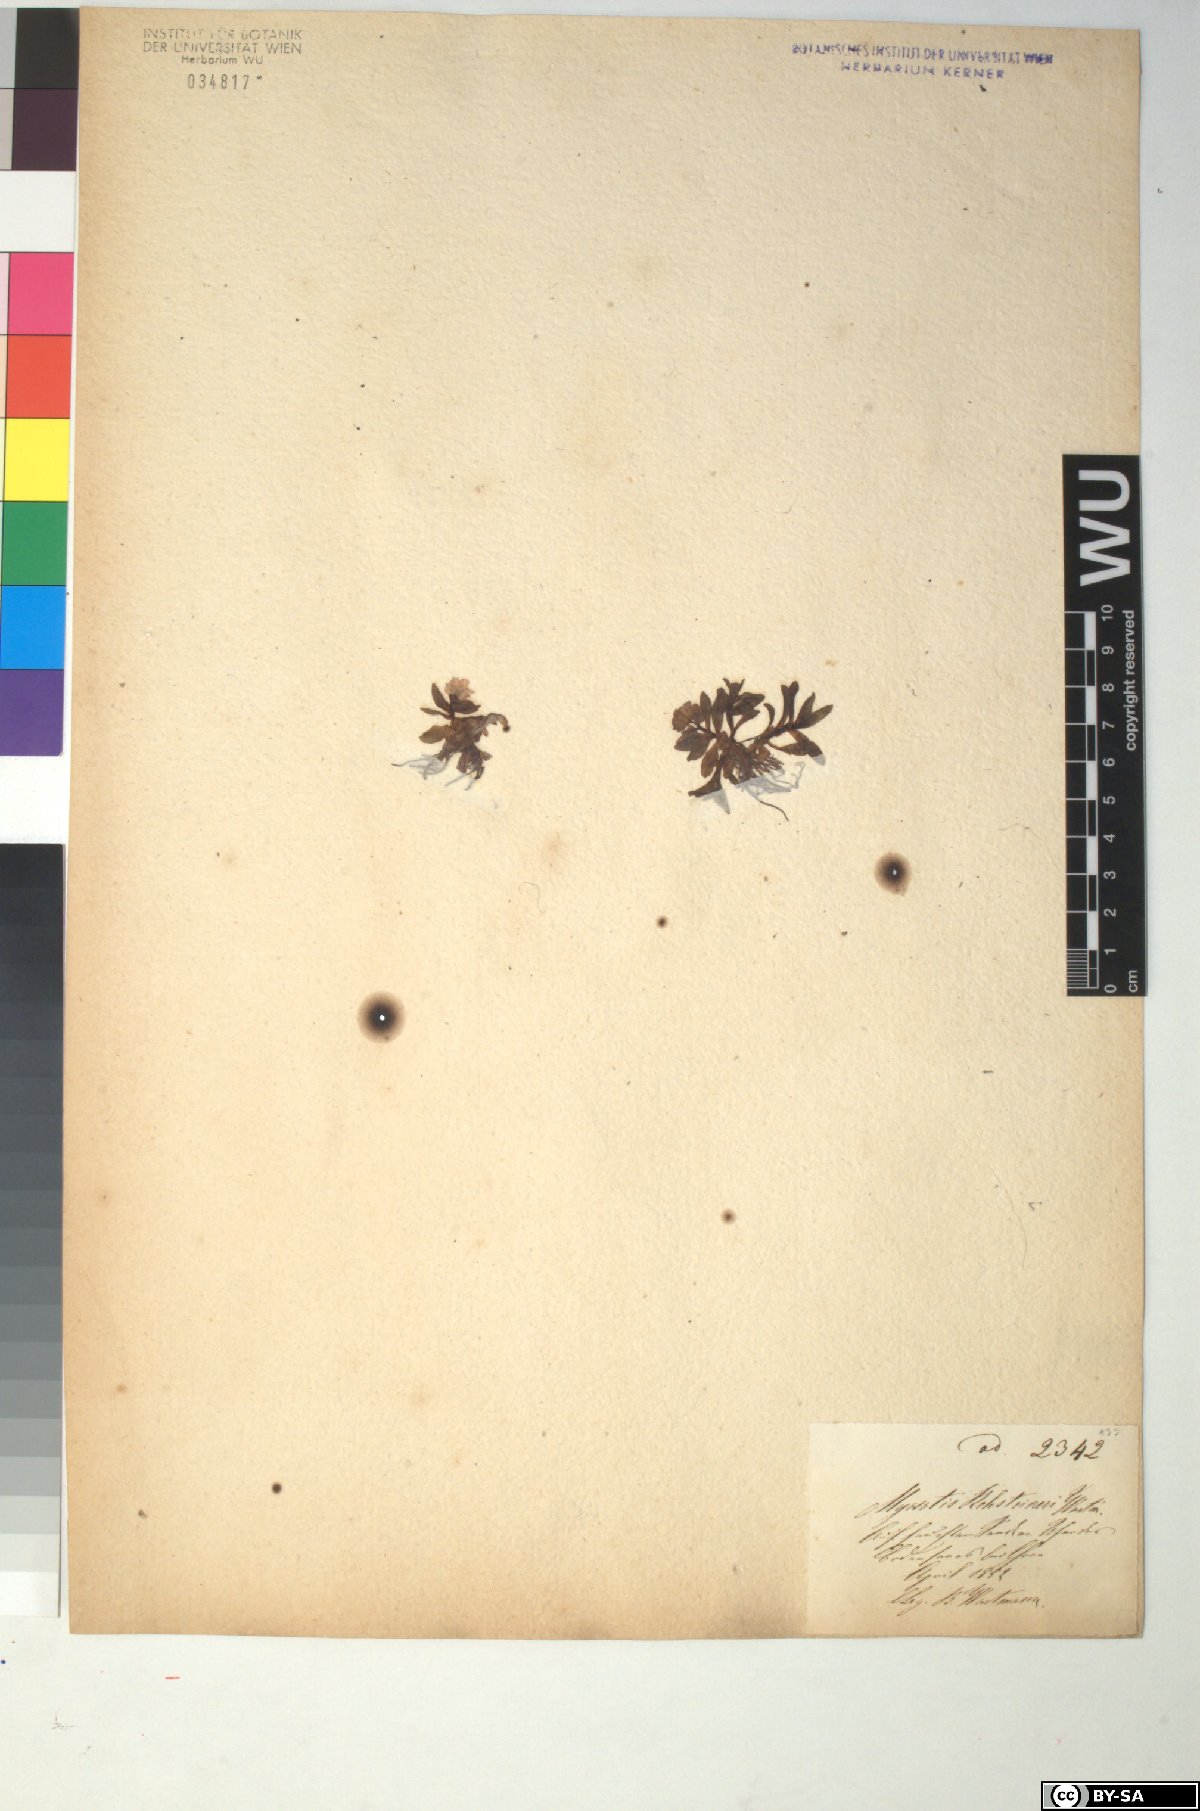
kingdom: Plantae
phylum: Tracheophyta
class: Magnoliopsida
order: Boraginales
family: Boraginaceae
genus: Myosotis
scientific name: Myosotis rehsteineri
